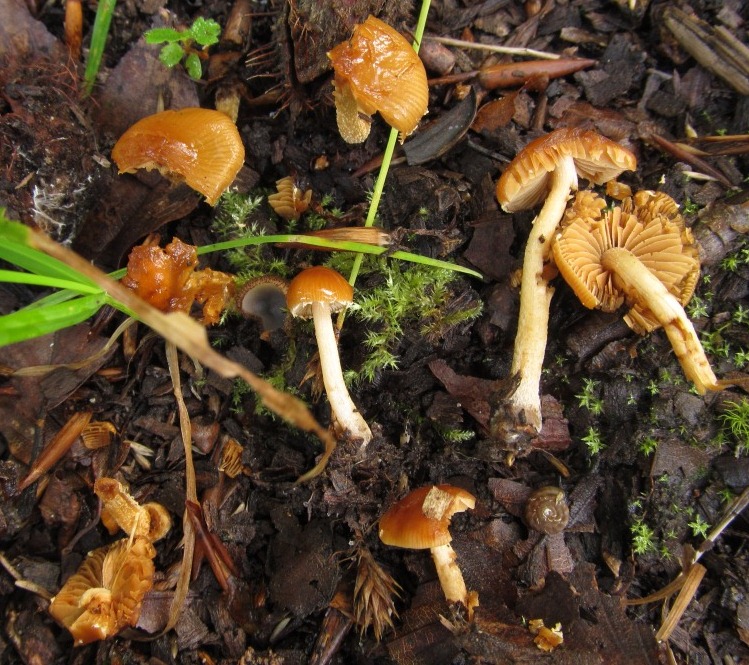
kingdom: Fungi
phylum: Basidiomycota
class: Agaricomycetes
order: Agaricales
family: Bolbitiaceae
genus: Conocybe
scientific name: Conocybe brunnea
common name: slør-dansehat
